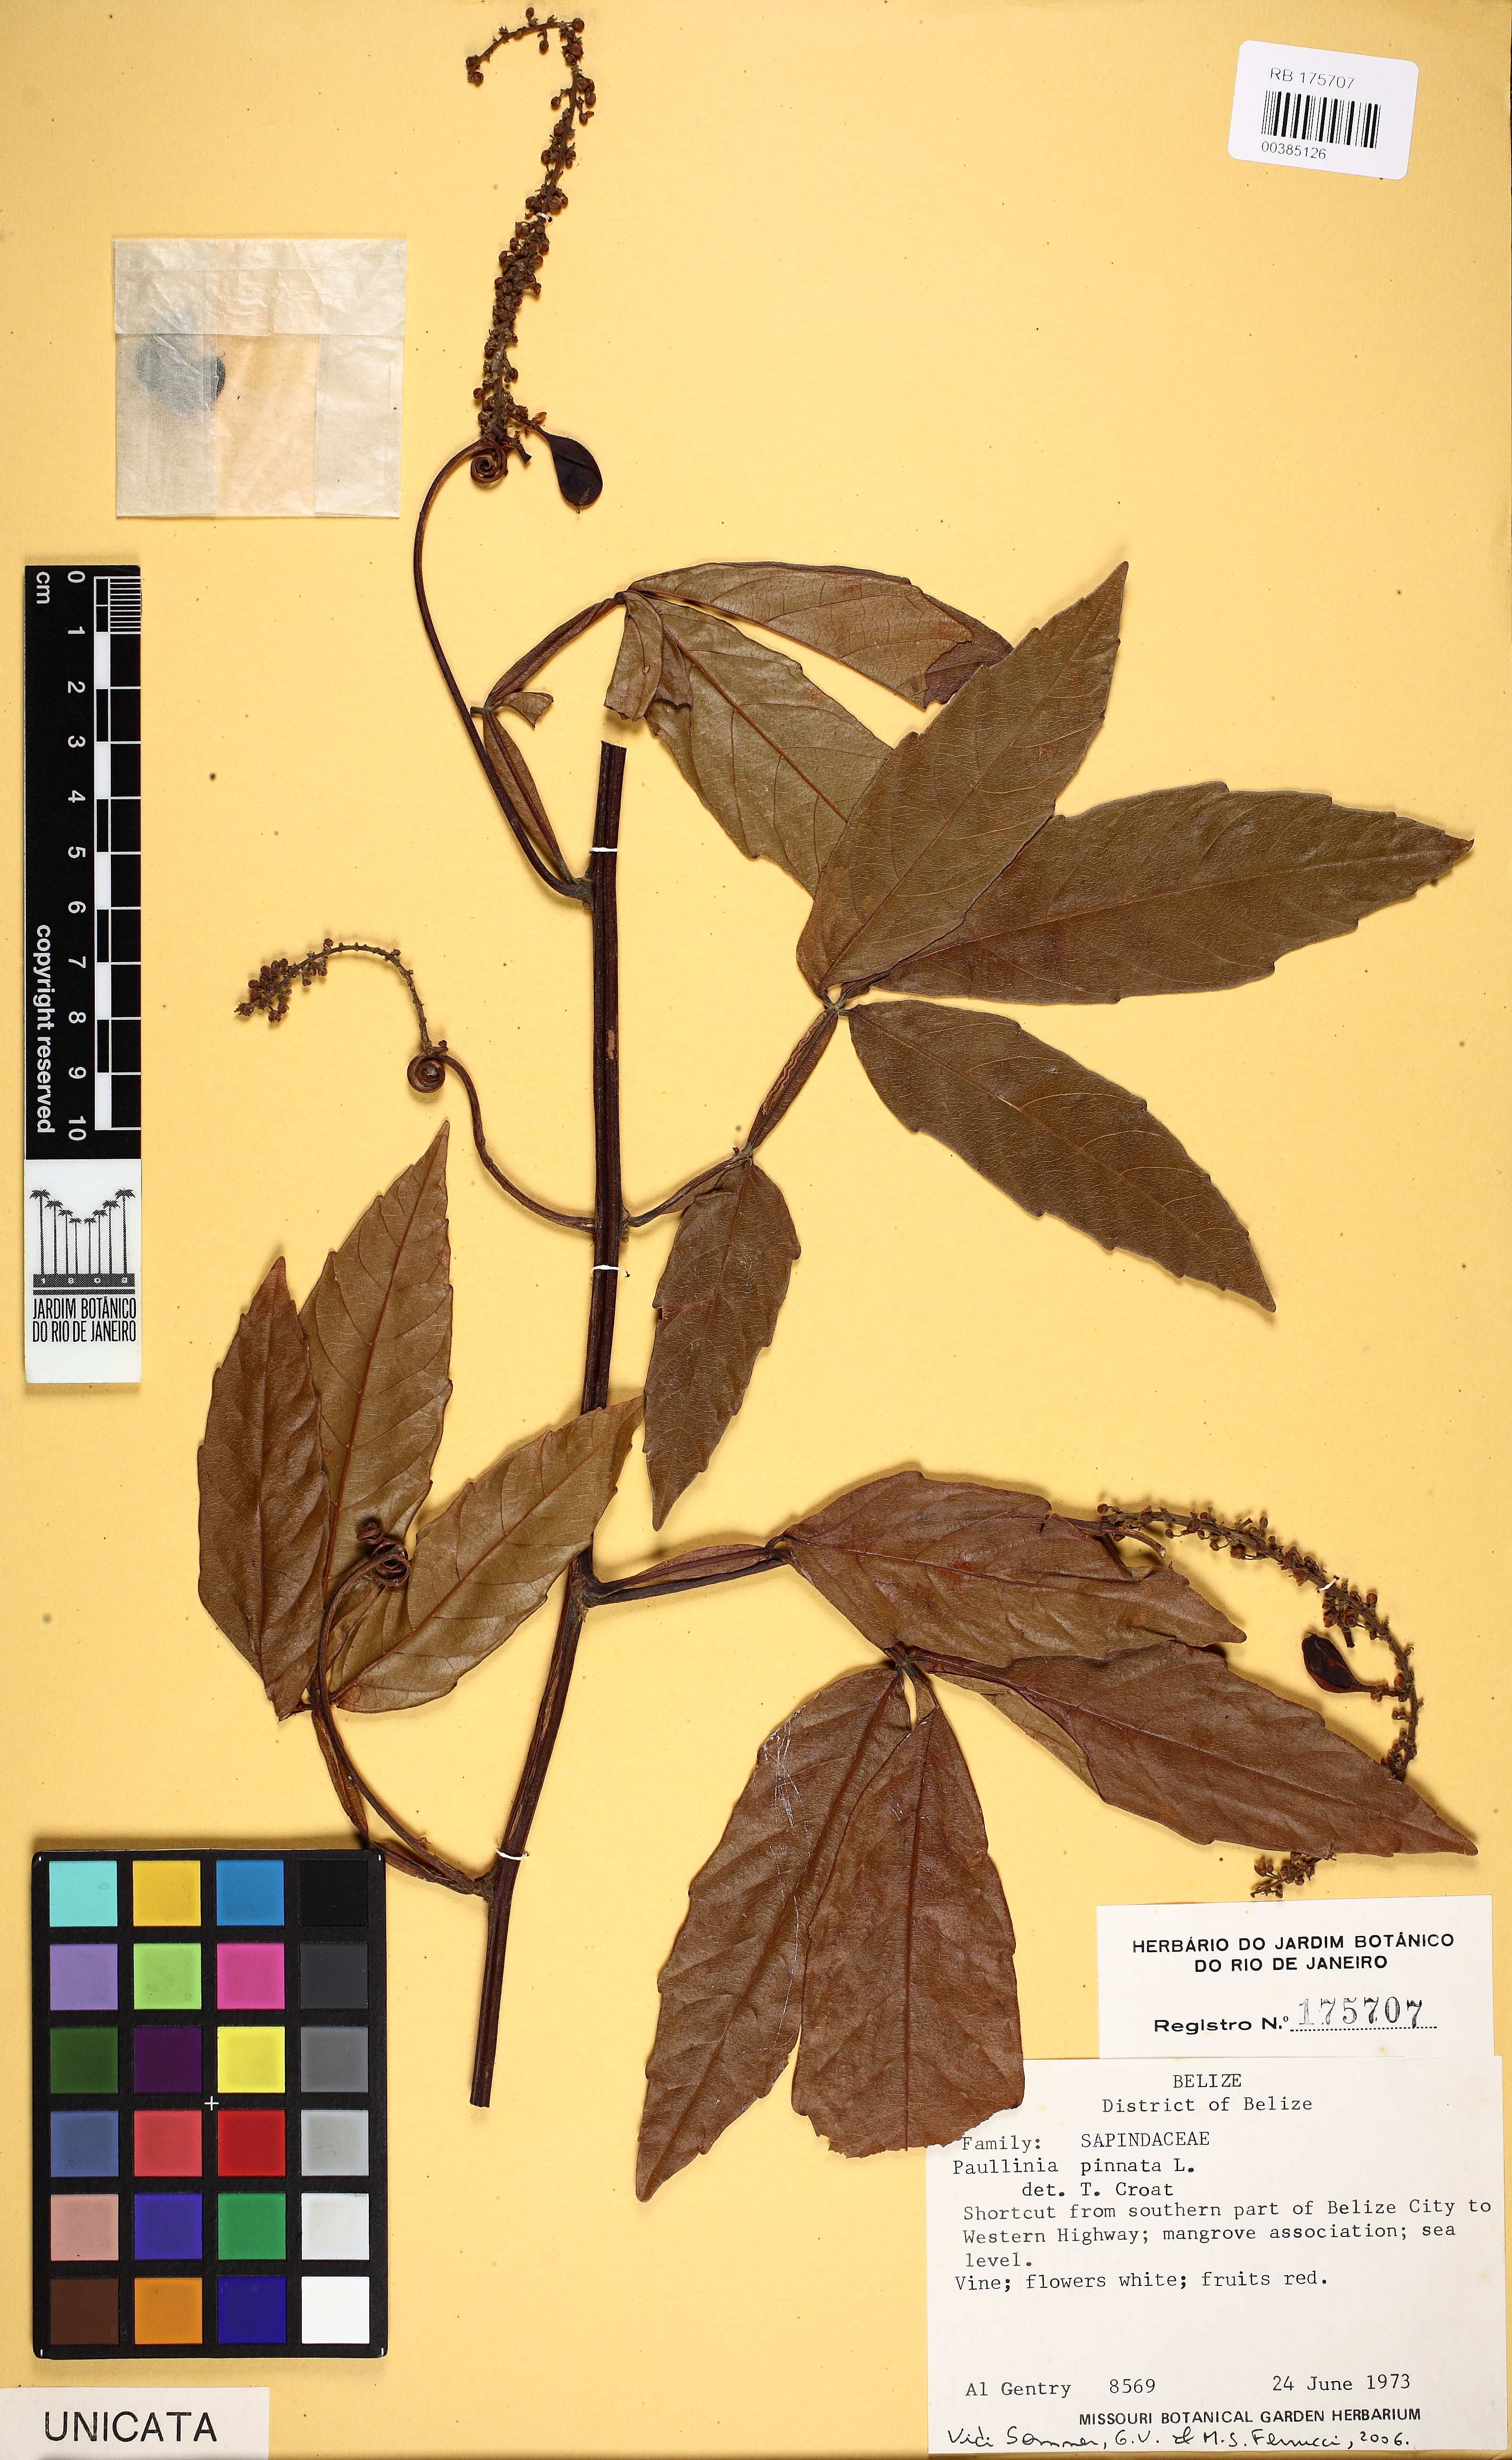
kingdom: Plantae
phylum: Tracheophyta
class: Magnoliopsida
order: Sapindales
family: Sapindaceae
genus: Paullinia
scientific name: Paullinia pinnata
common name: Barbasco
